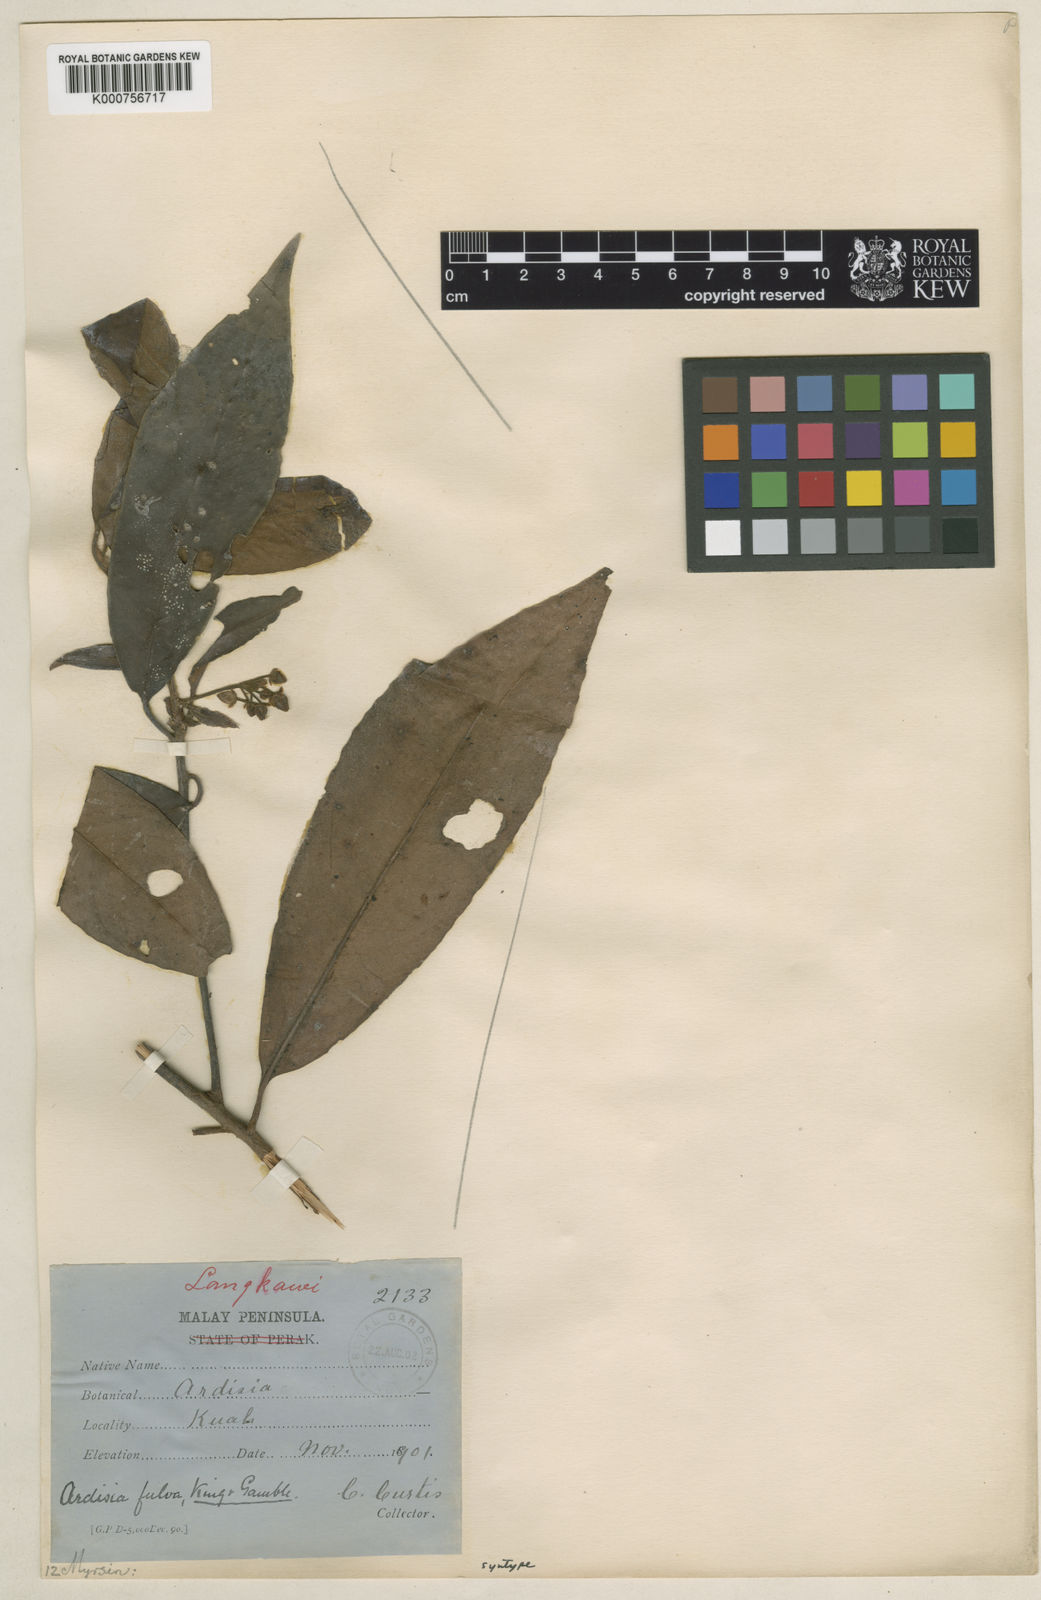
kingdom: Plantae
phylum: Tracheophyta
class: Magnoliopsida
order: Ericales
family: Primulaceae
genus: Ardisia
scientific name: Ardisia fulva
